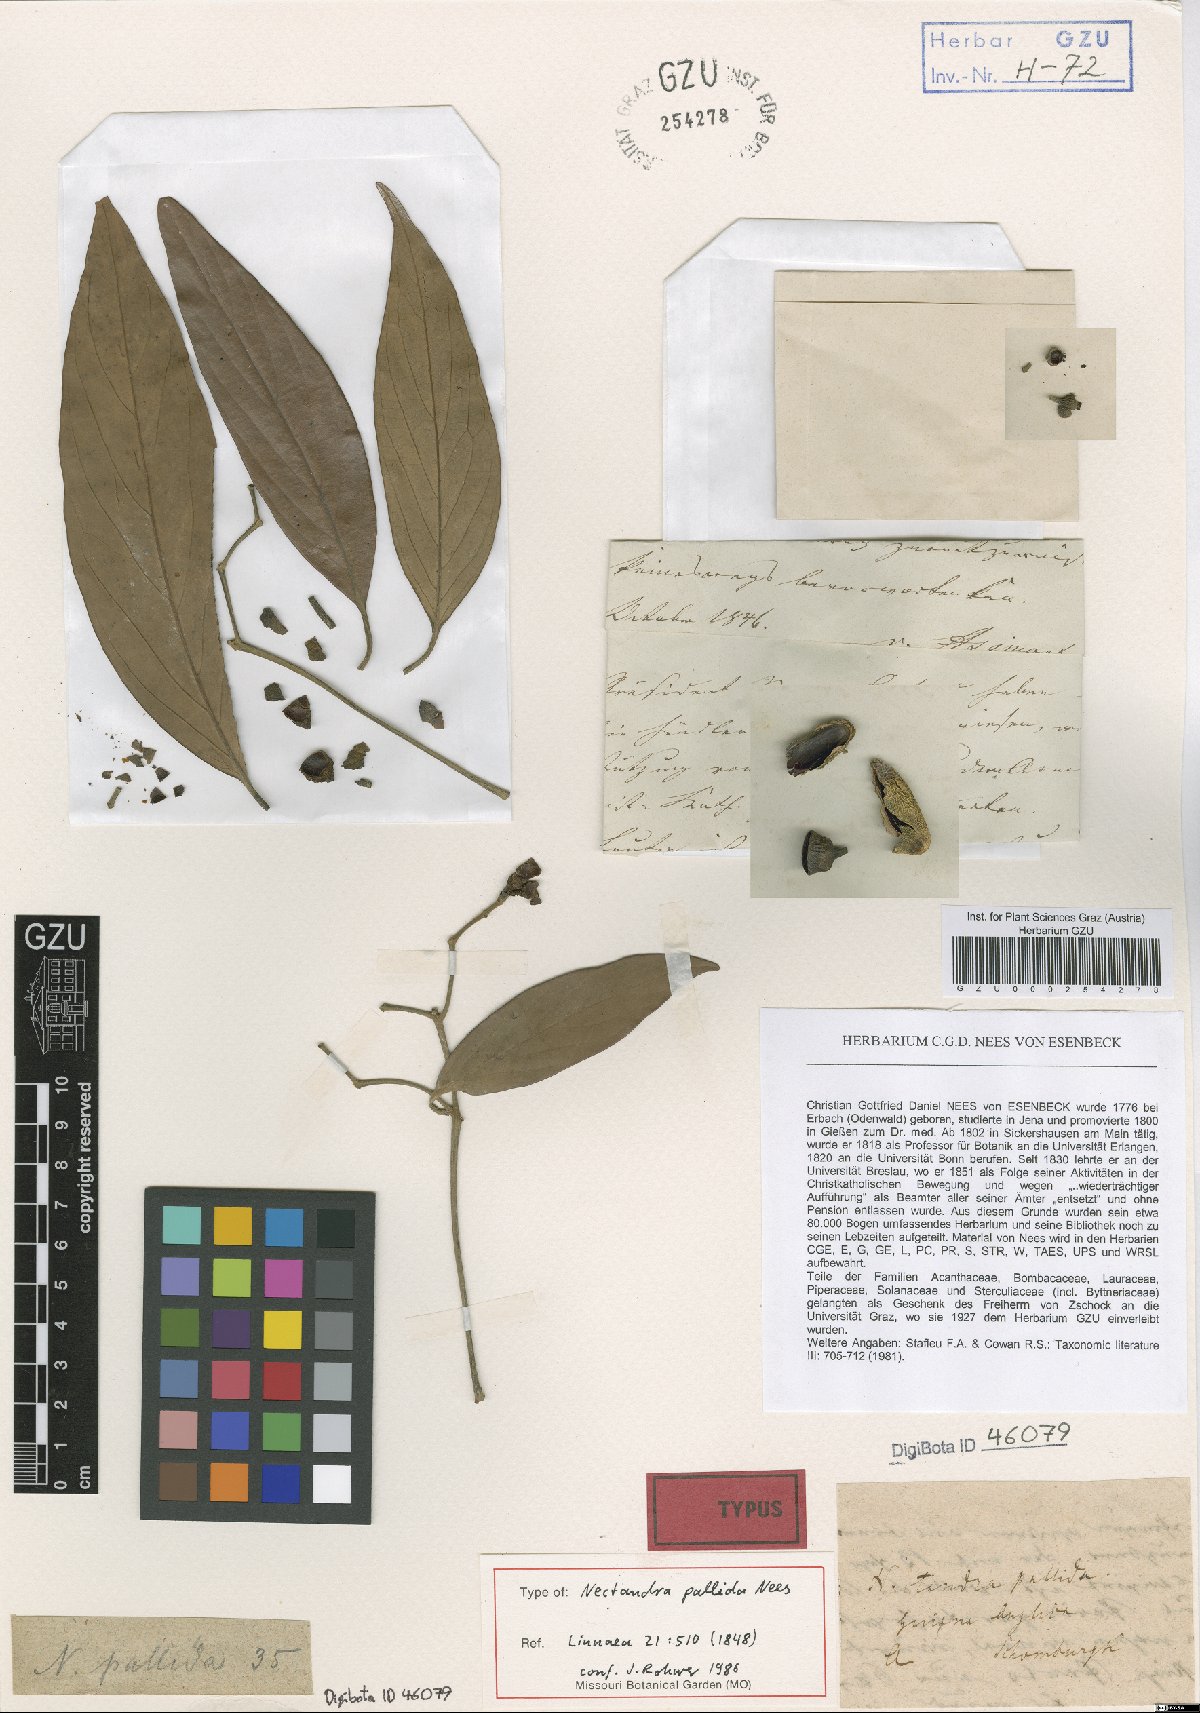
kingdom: Plantae
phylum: Tracheophyta
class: Magnoliopsida
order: Laurales
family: Lauraceae
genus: Nectandra
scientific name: Nectandra amazonum
